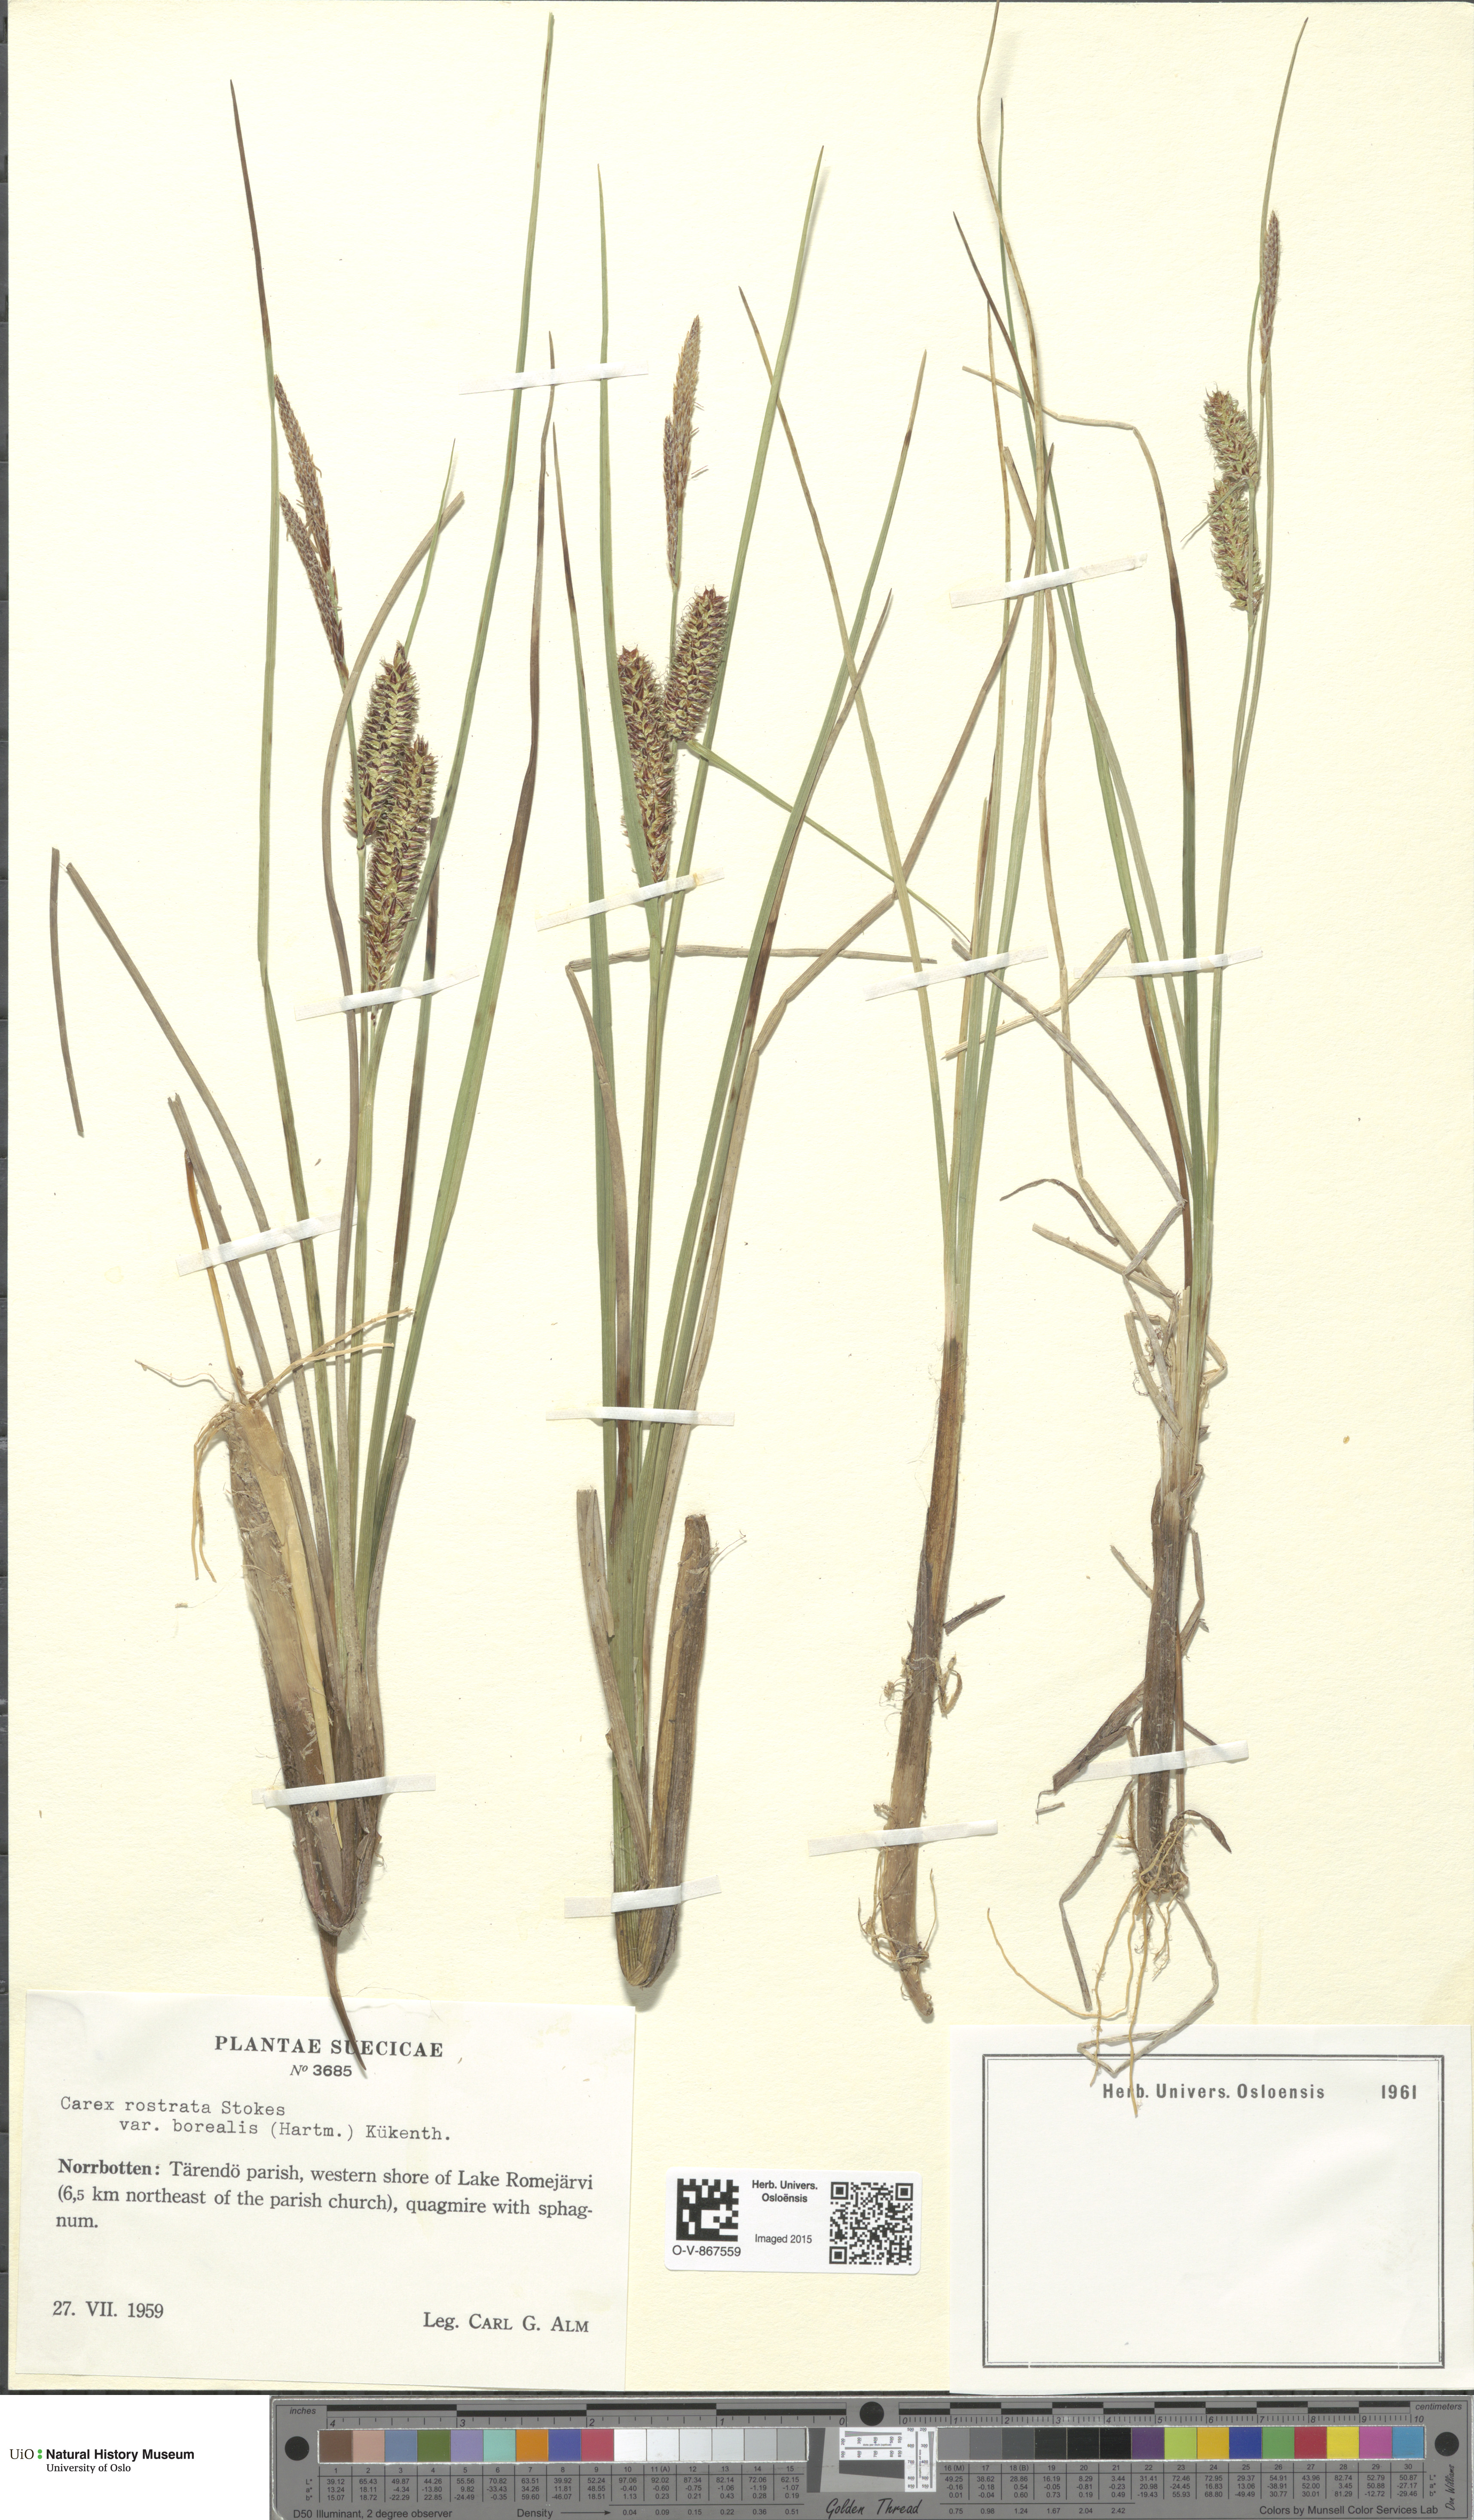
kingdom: Plantae
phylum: Tracheophyta
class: Liliopsida
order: Poales
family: Cyperaceae
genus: Carex
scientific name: Carex rostrata
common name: Bottle sedge
